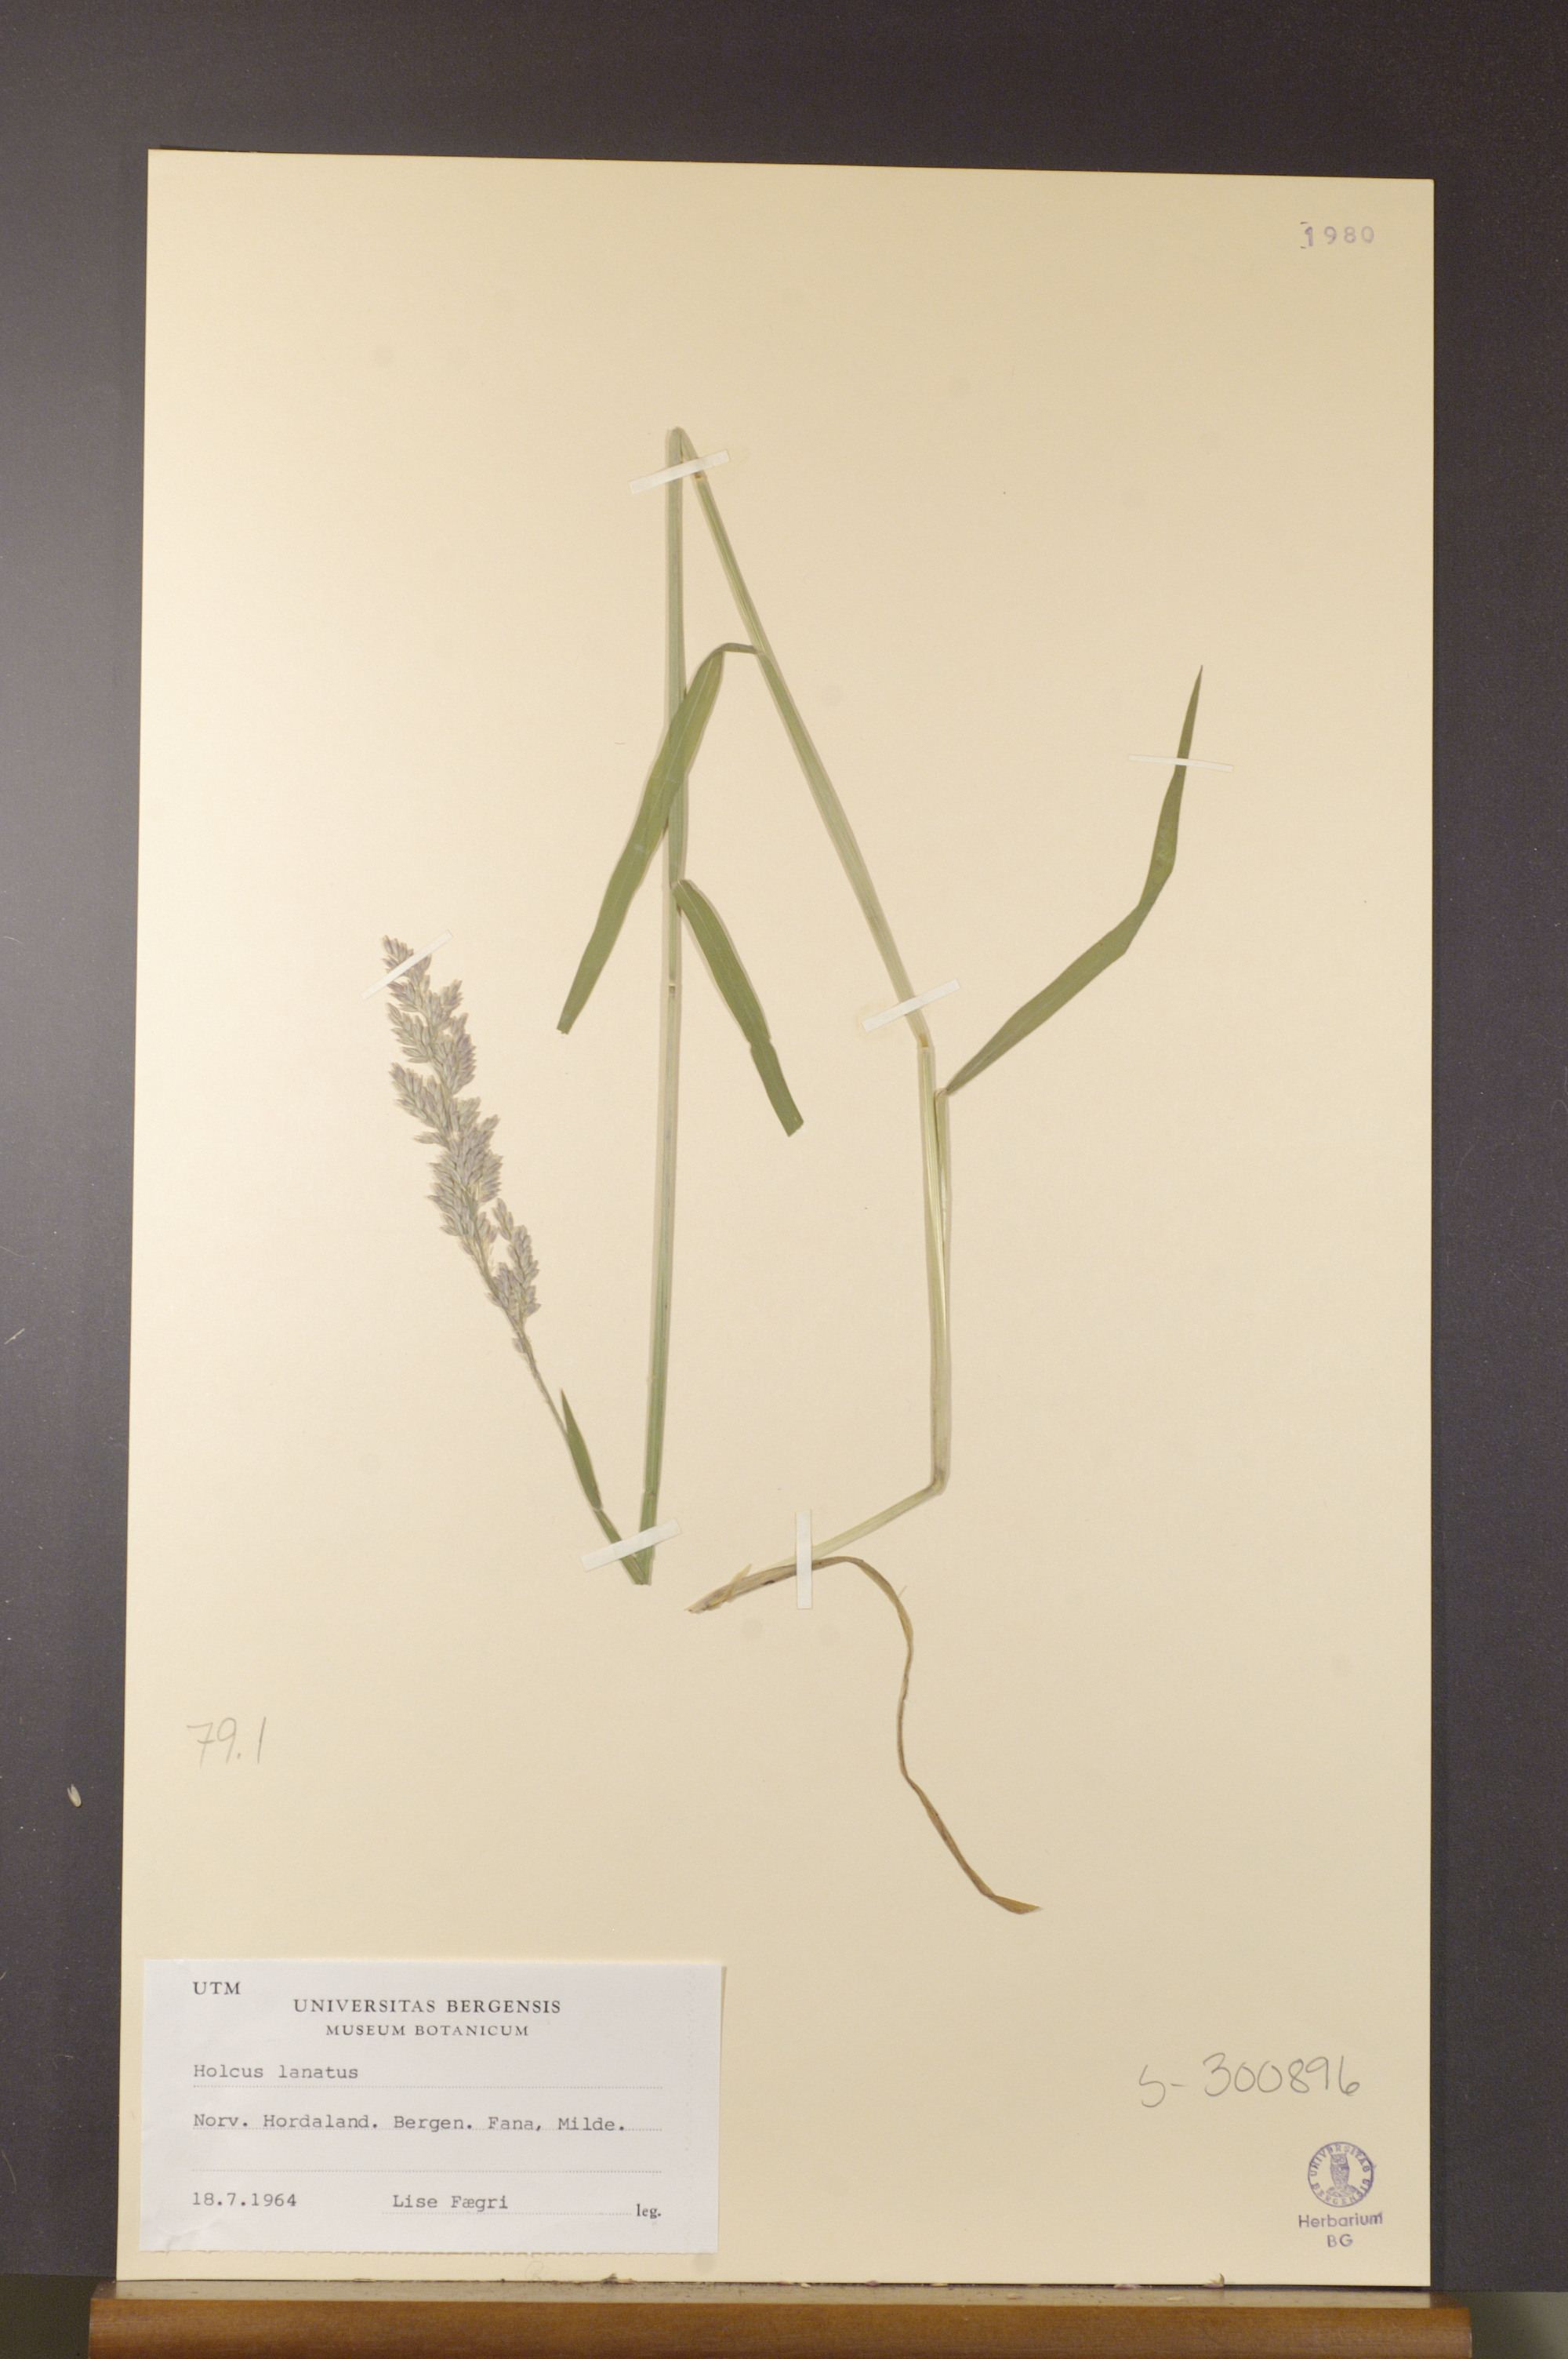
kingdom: Plantae
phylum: Tracheophyta
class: Liliopsida
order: Poales
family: Poaceae
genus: Holcus
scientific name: Holcus lanatus
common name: Yorkshire-fog
